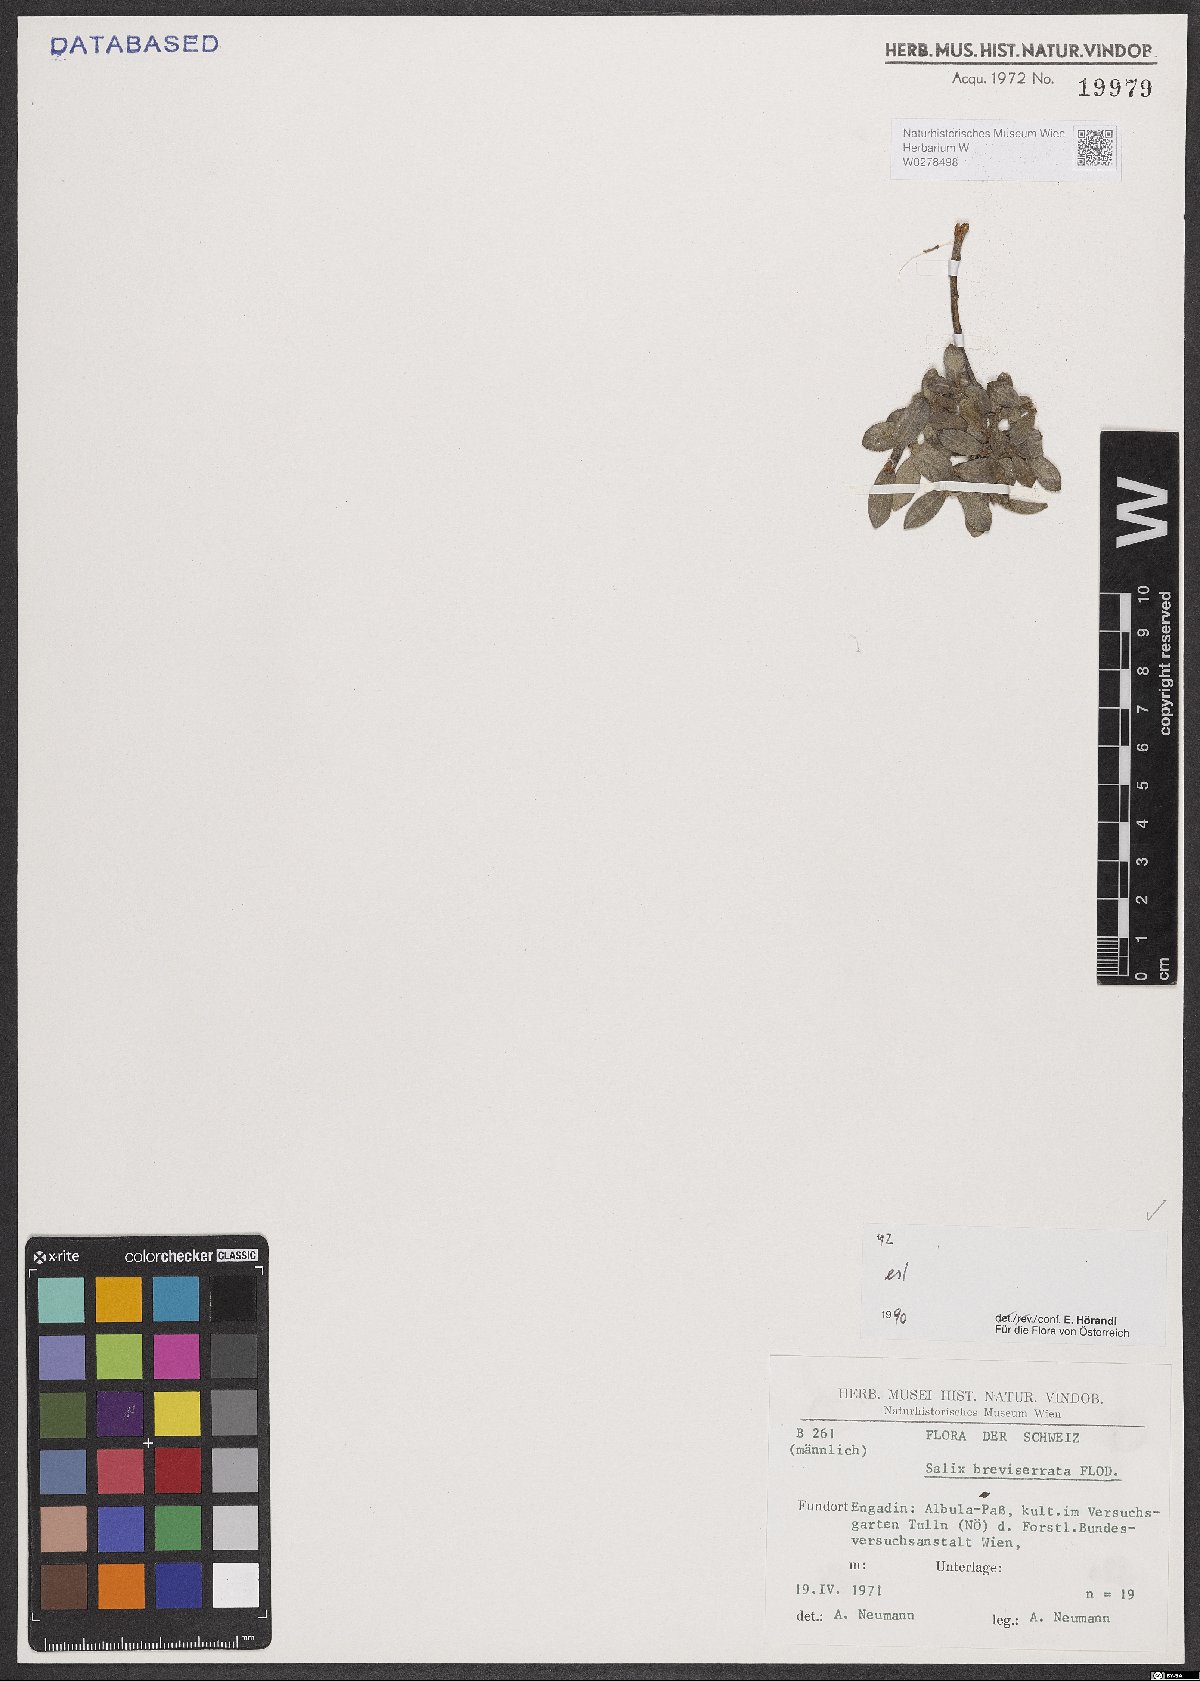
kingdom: Plantae
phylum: Tracheophyta
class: Magnoliopsida
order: Malpighiales
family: Salicaceae
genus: Salix
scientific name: Salix breviserrata
